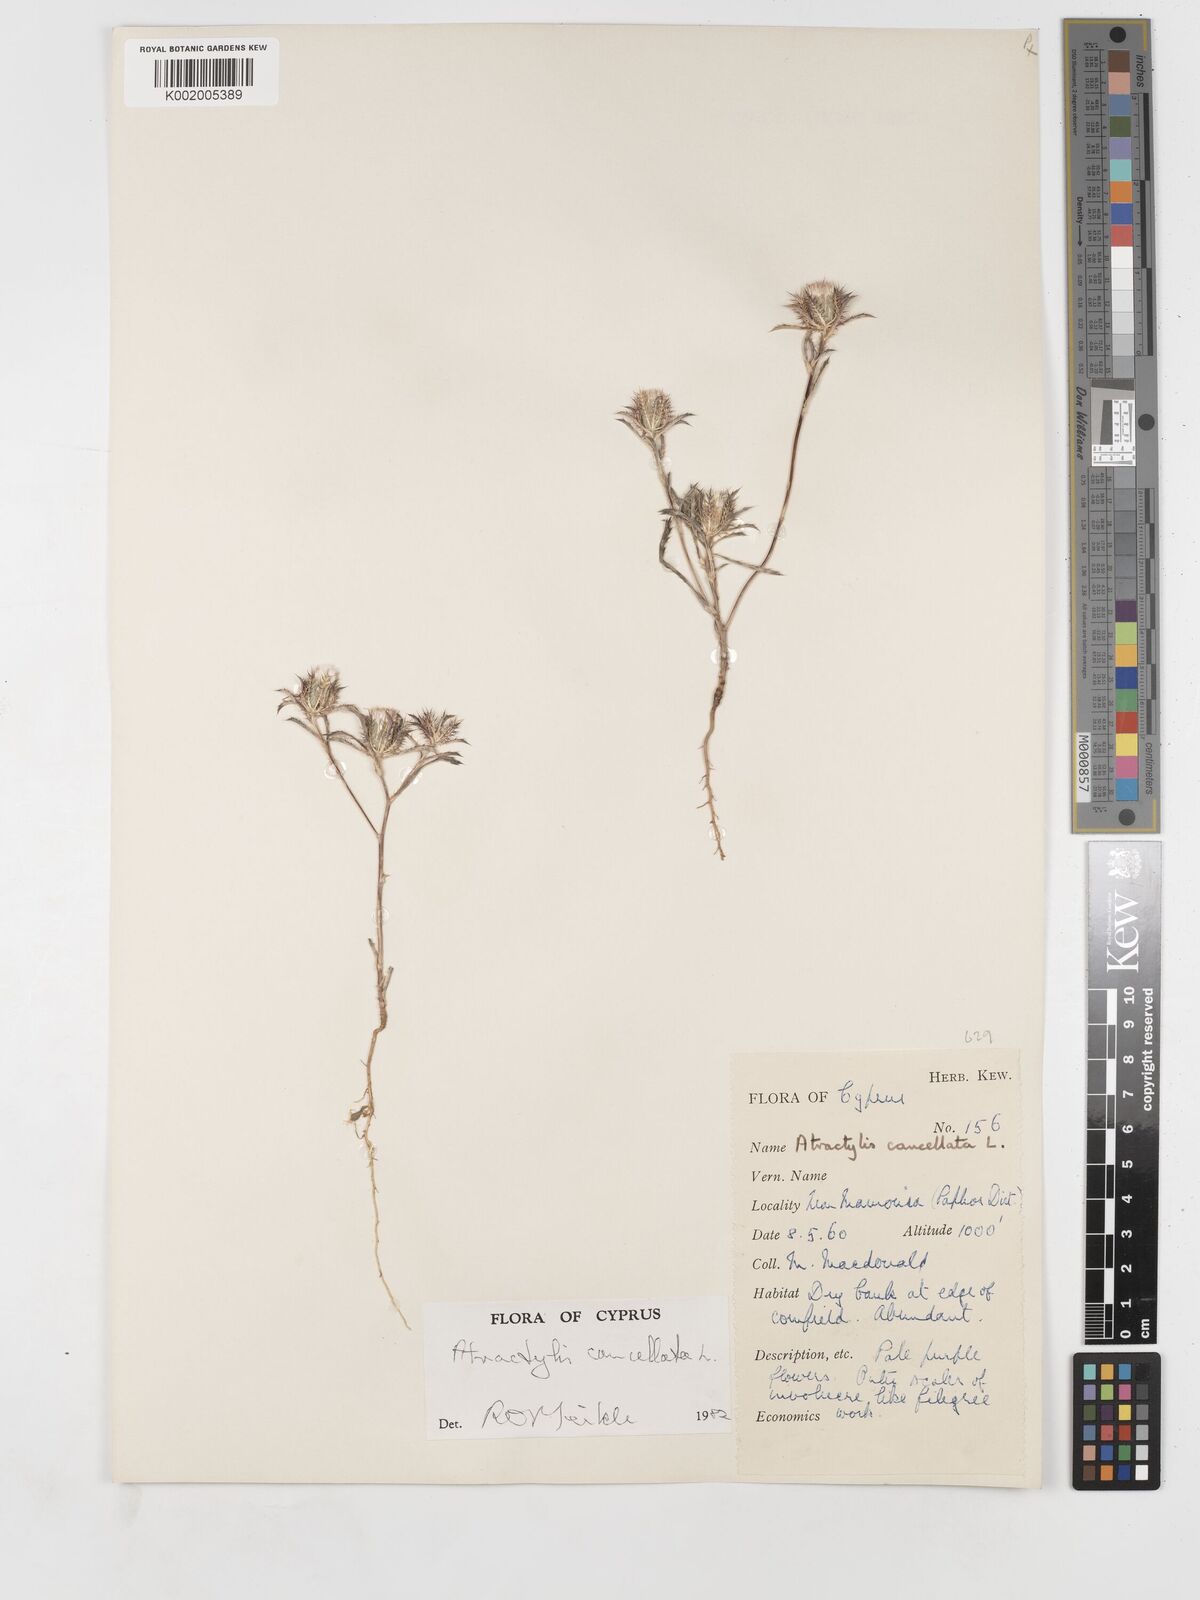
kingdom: Plantae
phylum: Tracheophyta
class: Magnoliopsida
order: Asterales
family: Asteraceae
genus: Atractylis
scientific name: Atractylis cancellata
